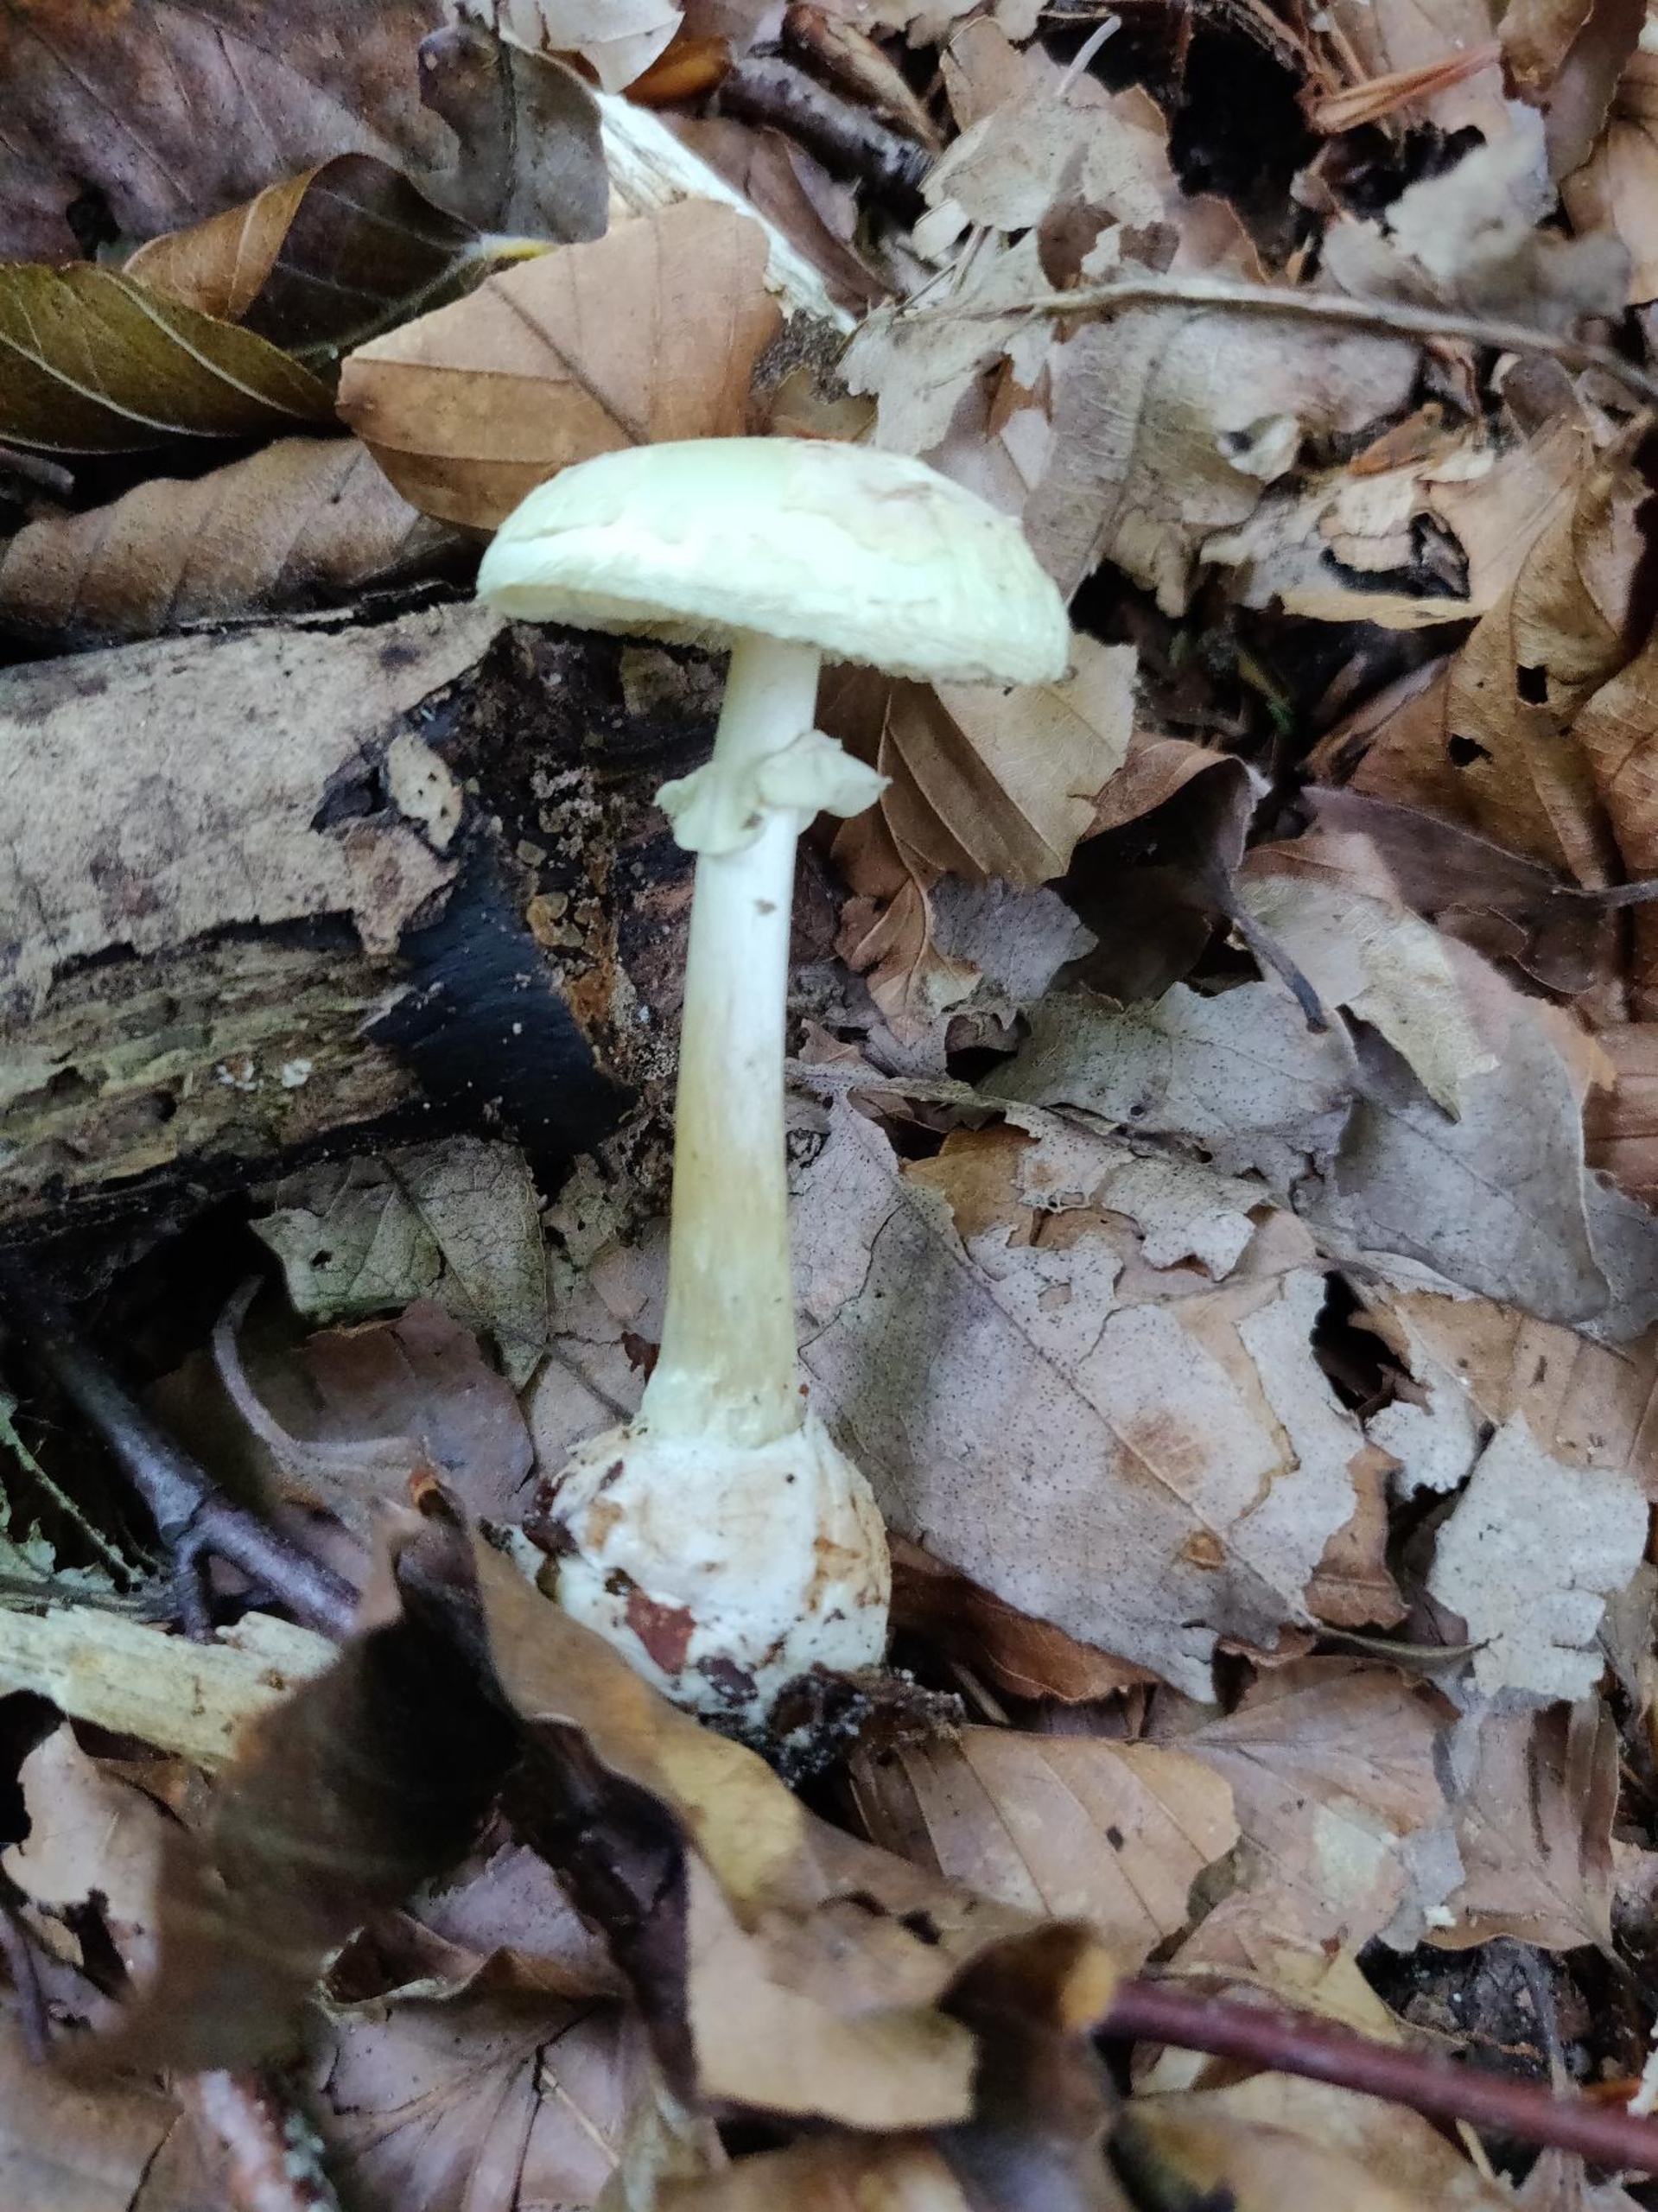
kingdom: Fungi
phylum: Basidiomycota
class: Agaricomycetes
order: Agaricales
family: Amanitaceae
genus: Amanita
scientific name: Amanita citrina
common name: Kugleknoldet fluesvamp
